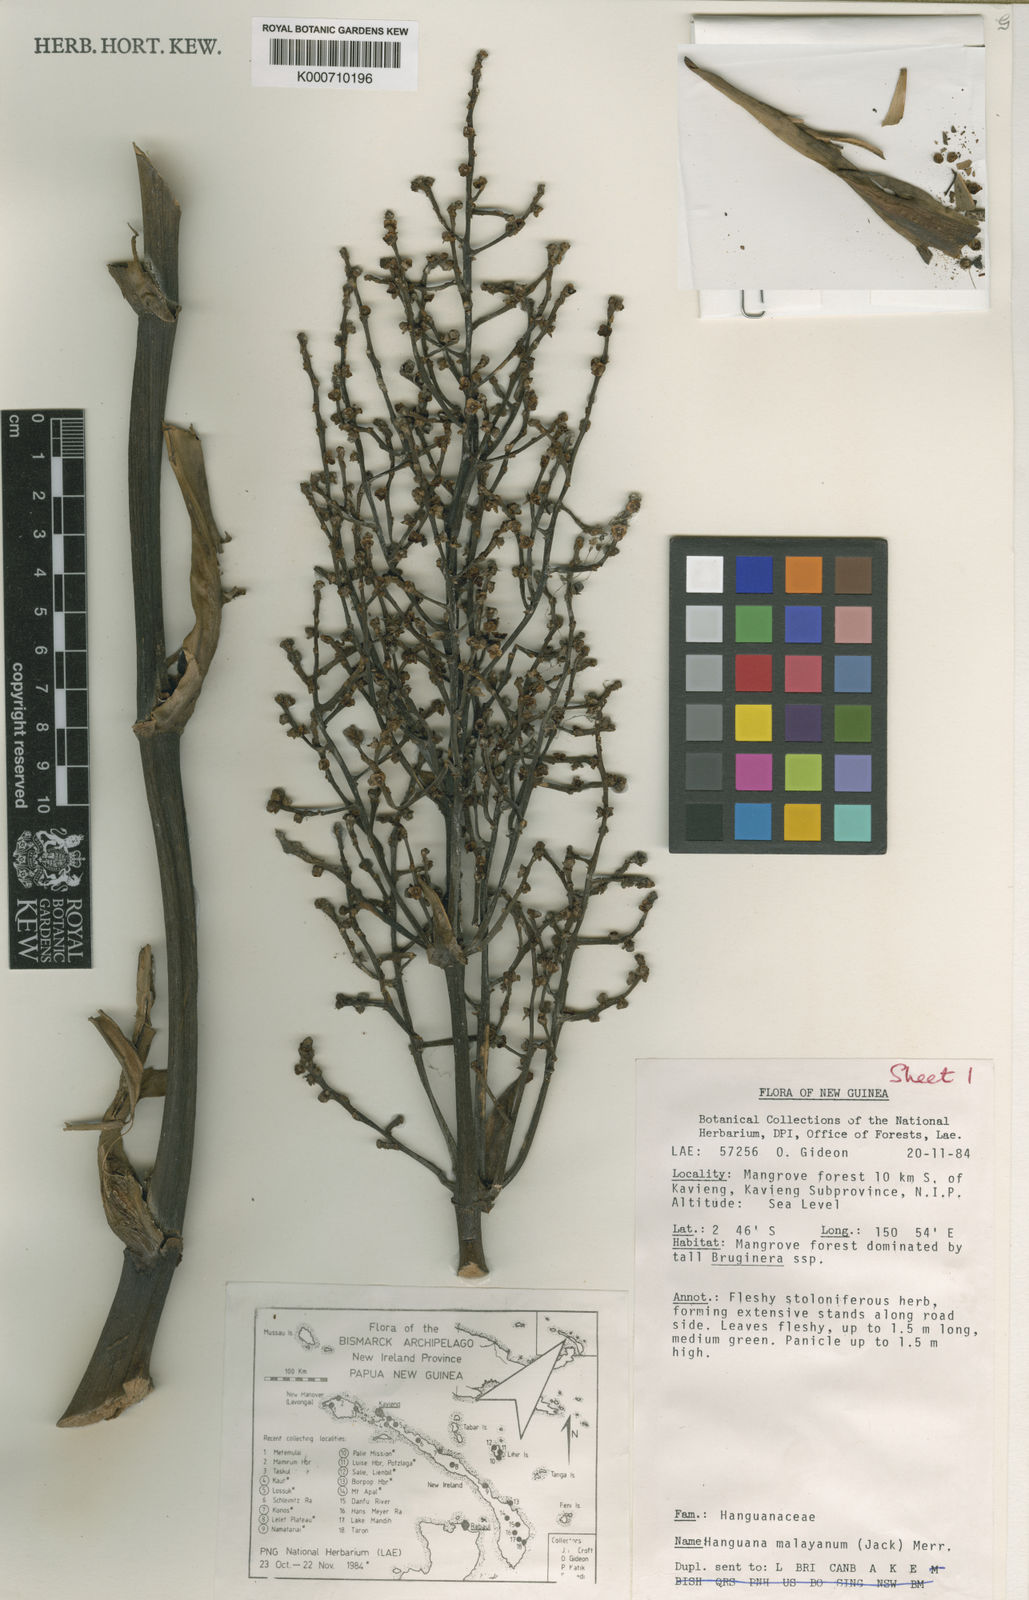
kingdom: Plantae
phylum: Tracheophyta
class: Liliopsida
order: Commelinales
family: Hanguanaceae
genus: Hanguana
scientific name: Hanguana malayana
